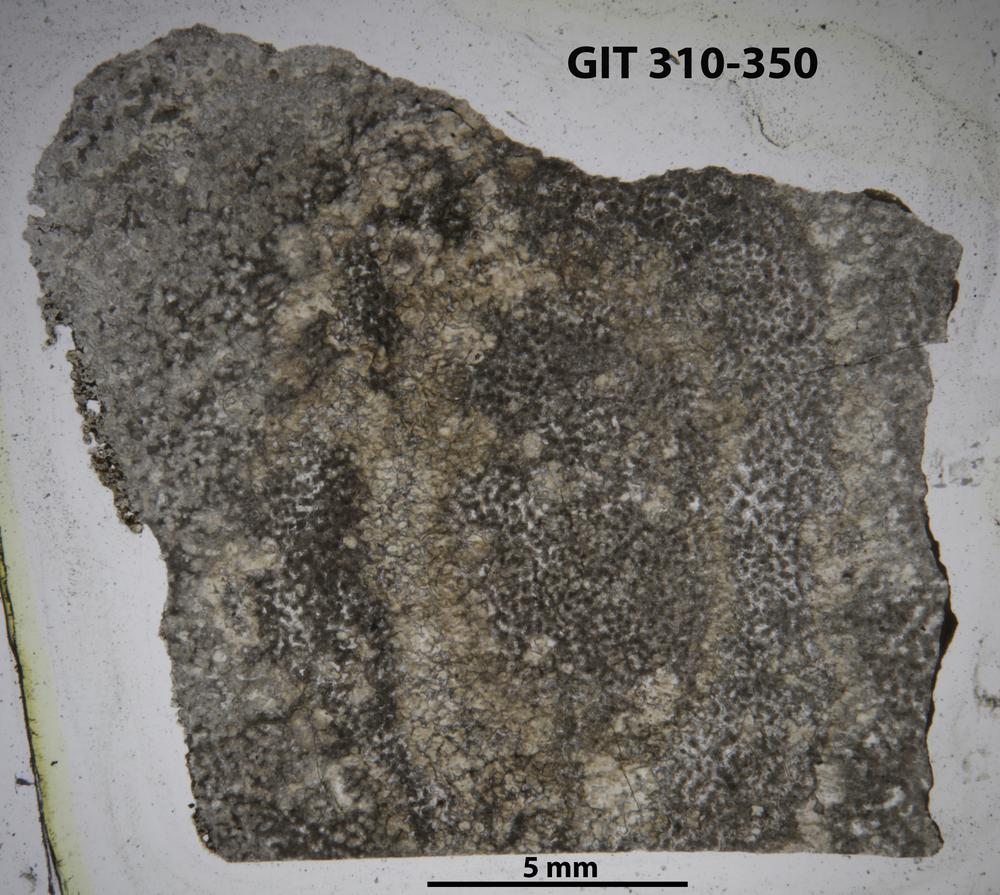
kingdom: Animalia
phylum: Porifera
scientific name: Porifera
